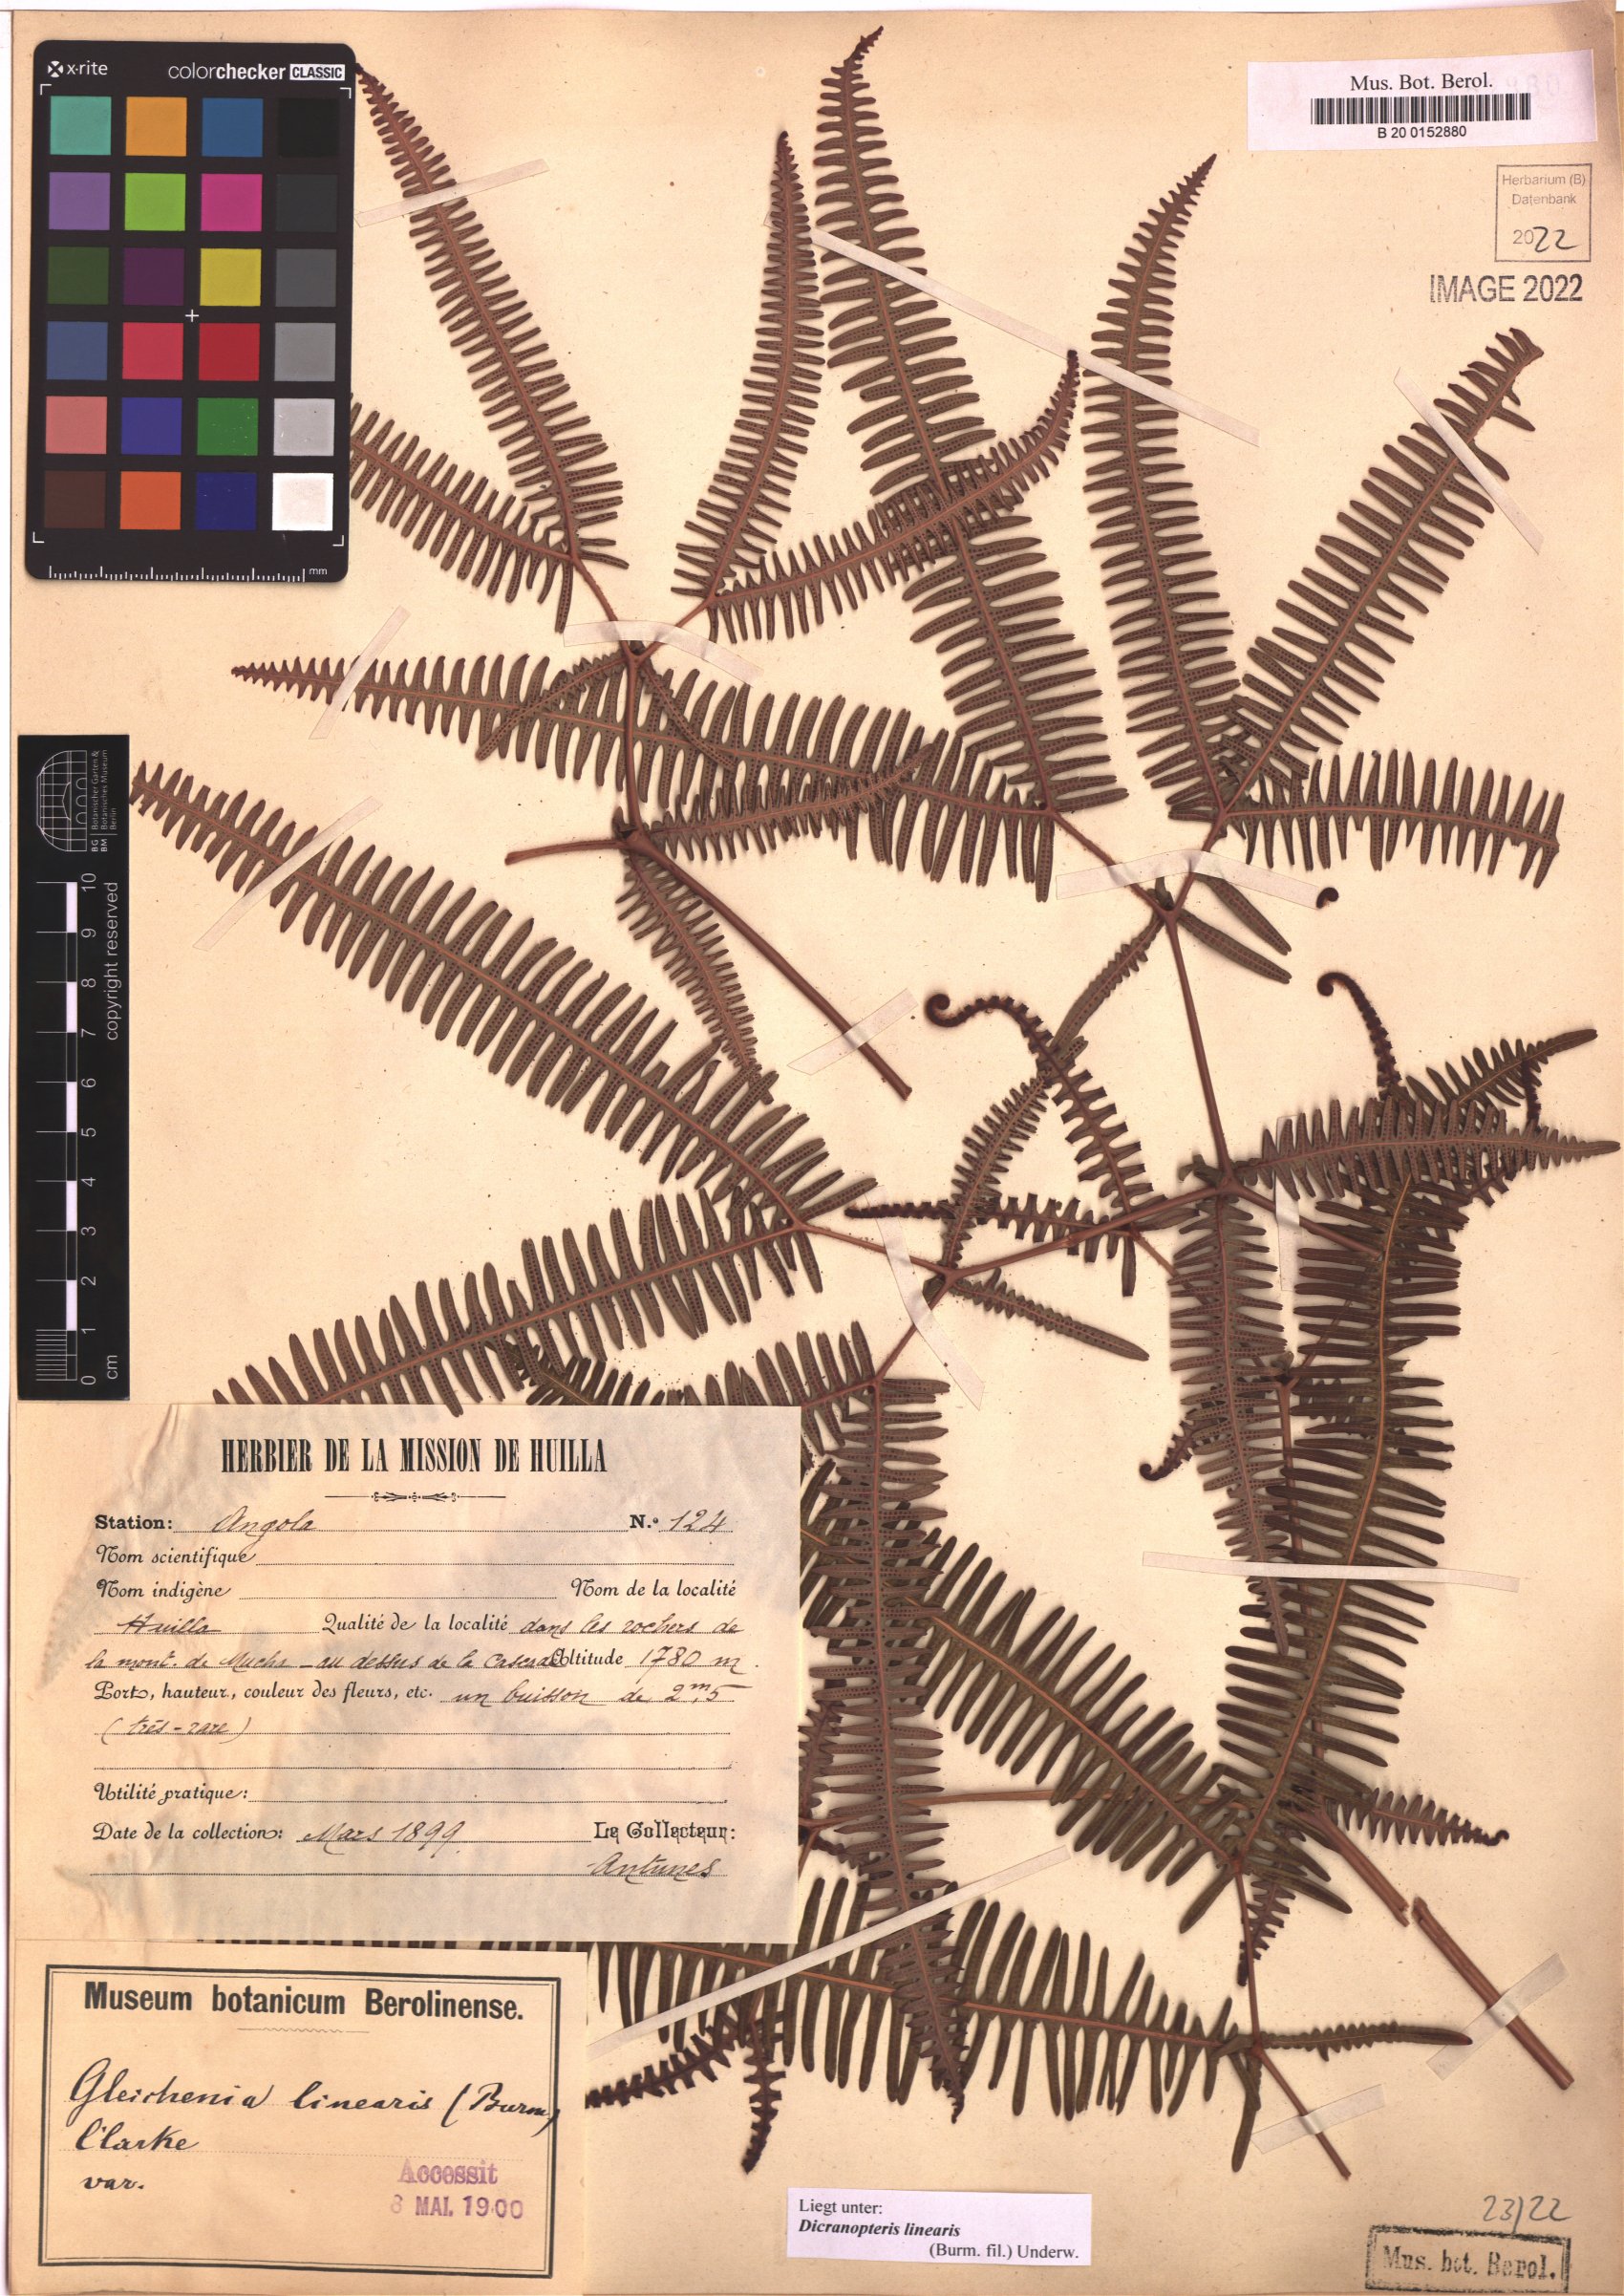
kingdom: Plantae
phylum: Tracheophyta
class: Polypodiopsida
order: Gleicheniales
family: Gleicheniaceae
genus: Dicranopteris
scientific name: Dicranopteris linearis
